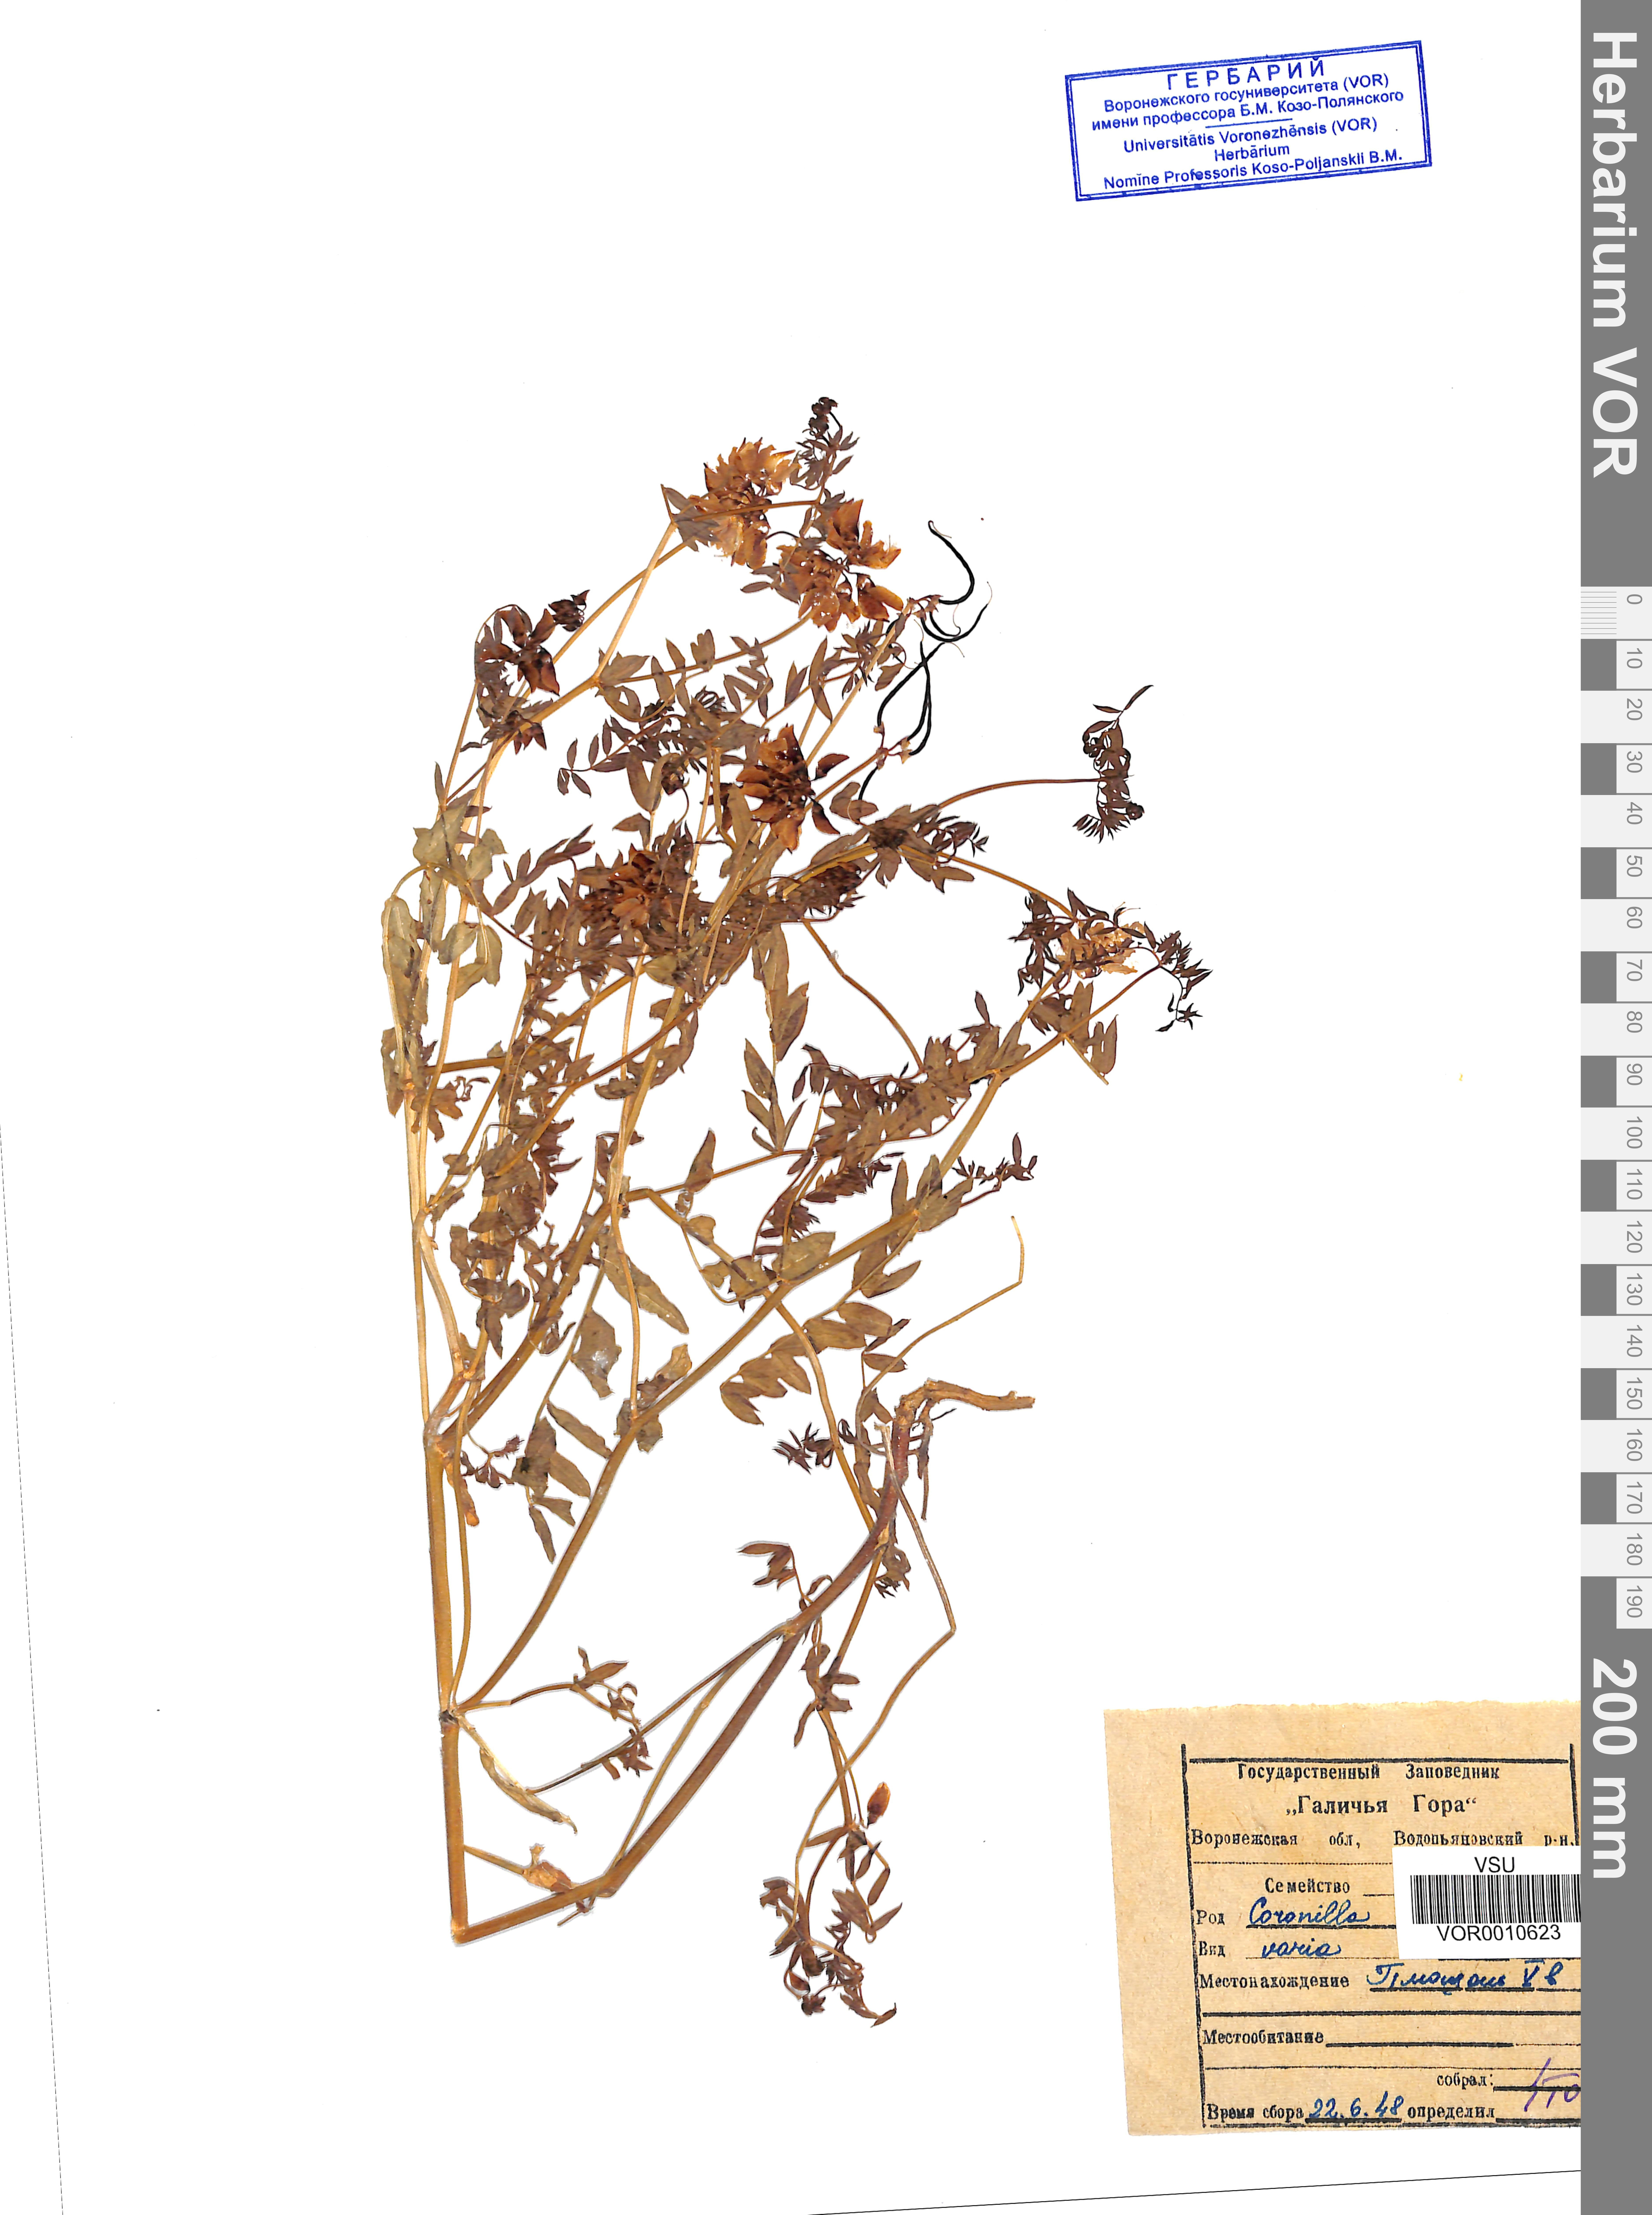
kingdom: Plantae
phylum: Tracheophyta
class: Magnoliopsida
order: Fabales
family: Fabaceae
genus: Coronilla
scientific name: Coronilla varia
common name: Crownvetch
